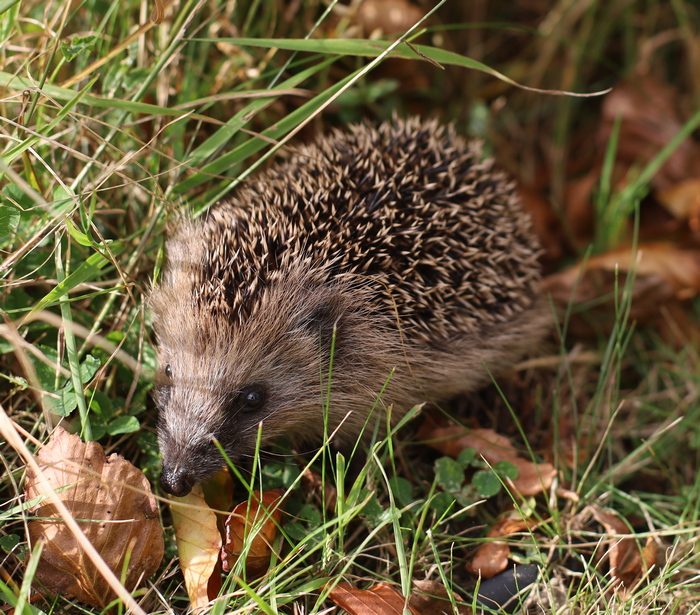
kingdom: Animalia
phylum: Chordata
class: Mammalia
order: Erinaceomorpha
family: Erinaceidae
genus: Erinaceus
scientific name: Erinaceus europaeus
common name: Pindsvin
